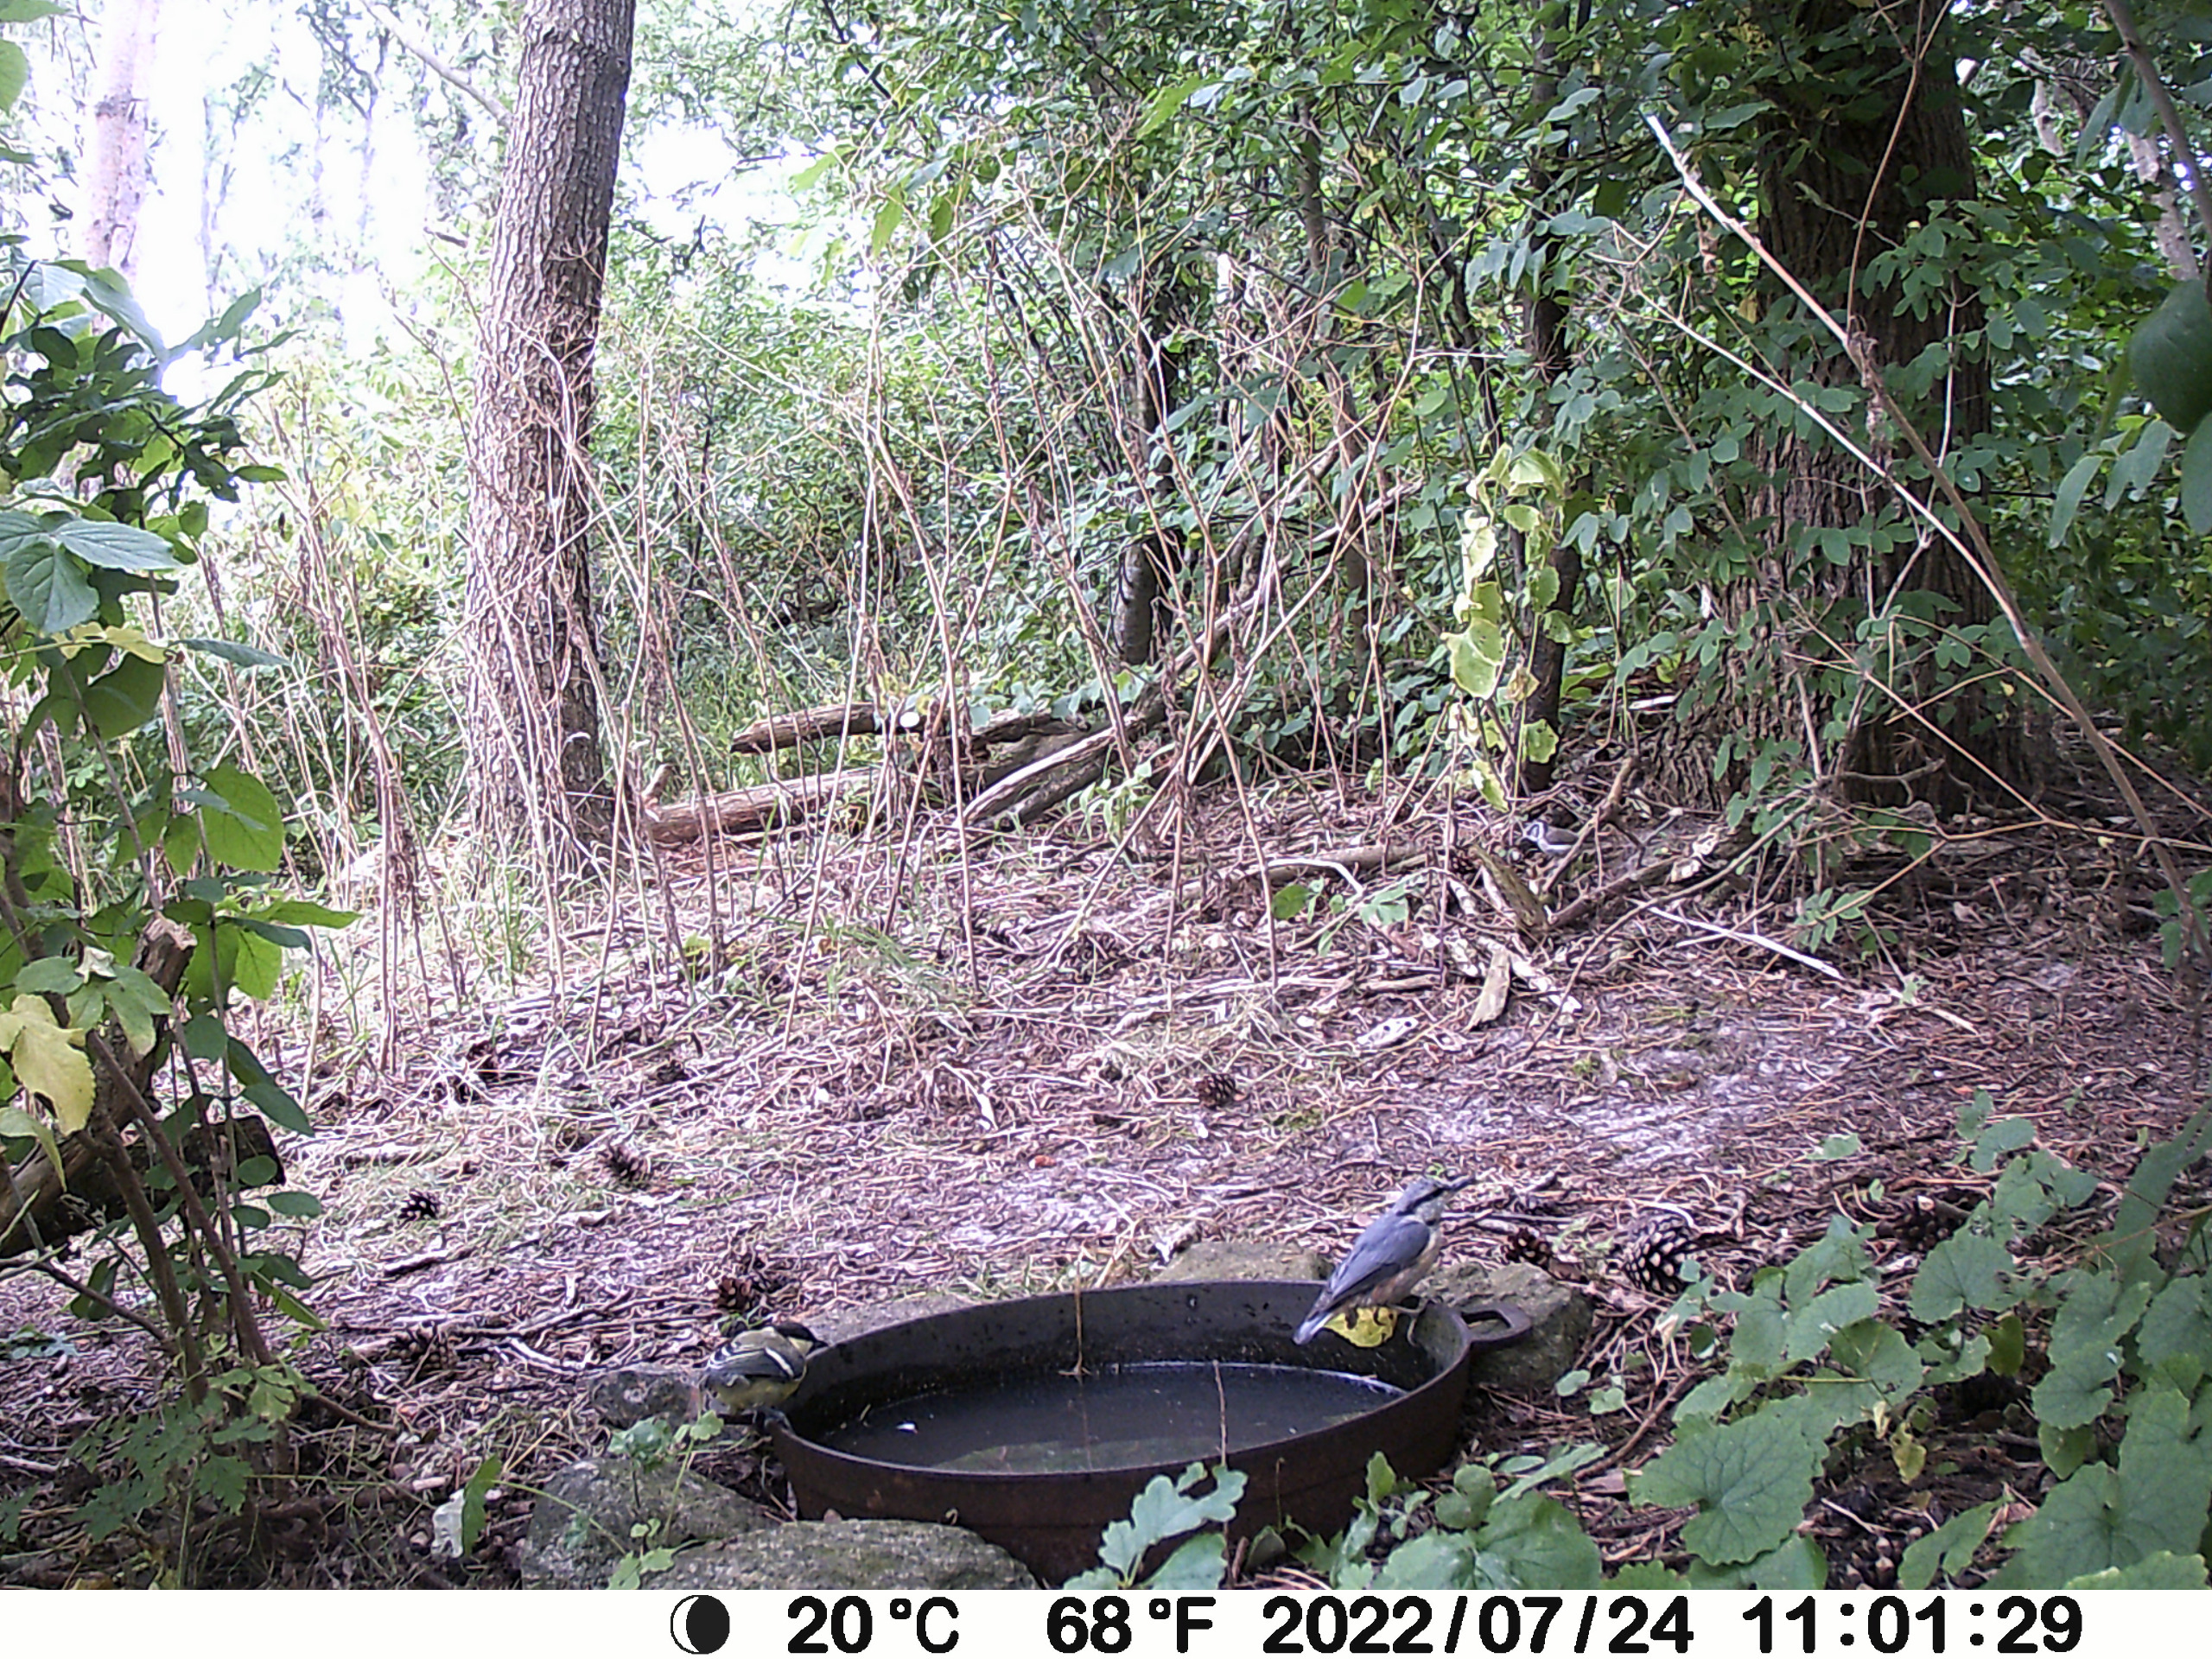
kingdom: Animalia
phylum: Chordata
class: Aves
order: Passeriformes
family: Sittidae
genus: Sitta
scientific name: Sitta europaea
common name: Spætmejse
